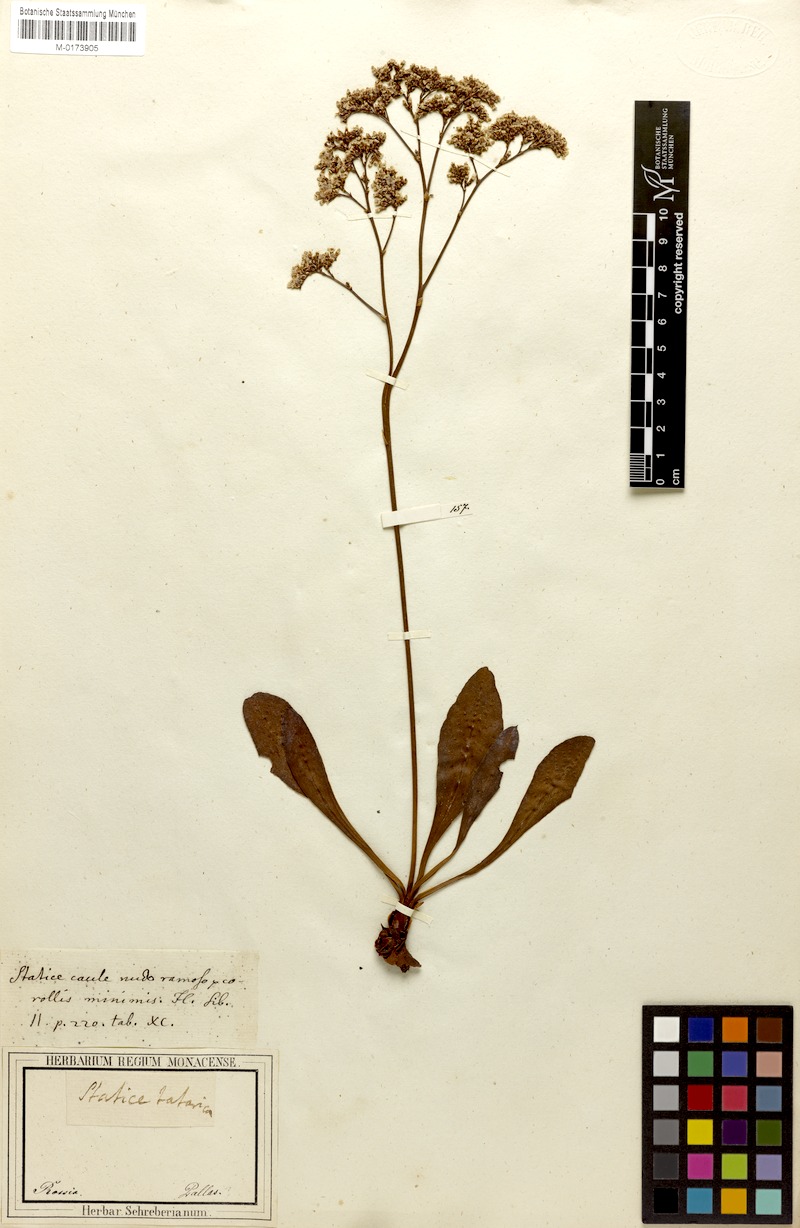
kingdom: Plantae
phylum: Tracheophyta
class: Magnoliopsida
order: Caryophyllales
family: Plumbaginaceae
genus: Limonium
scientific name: Limonium gmelini
